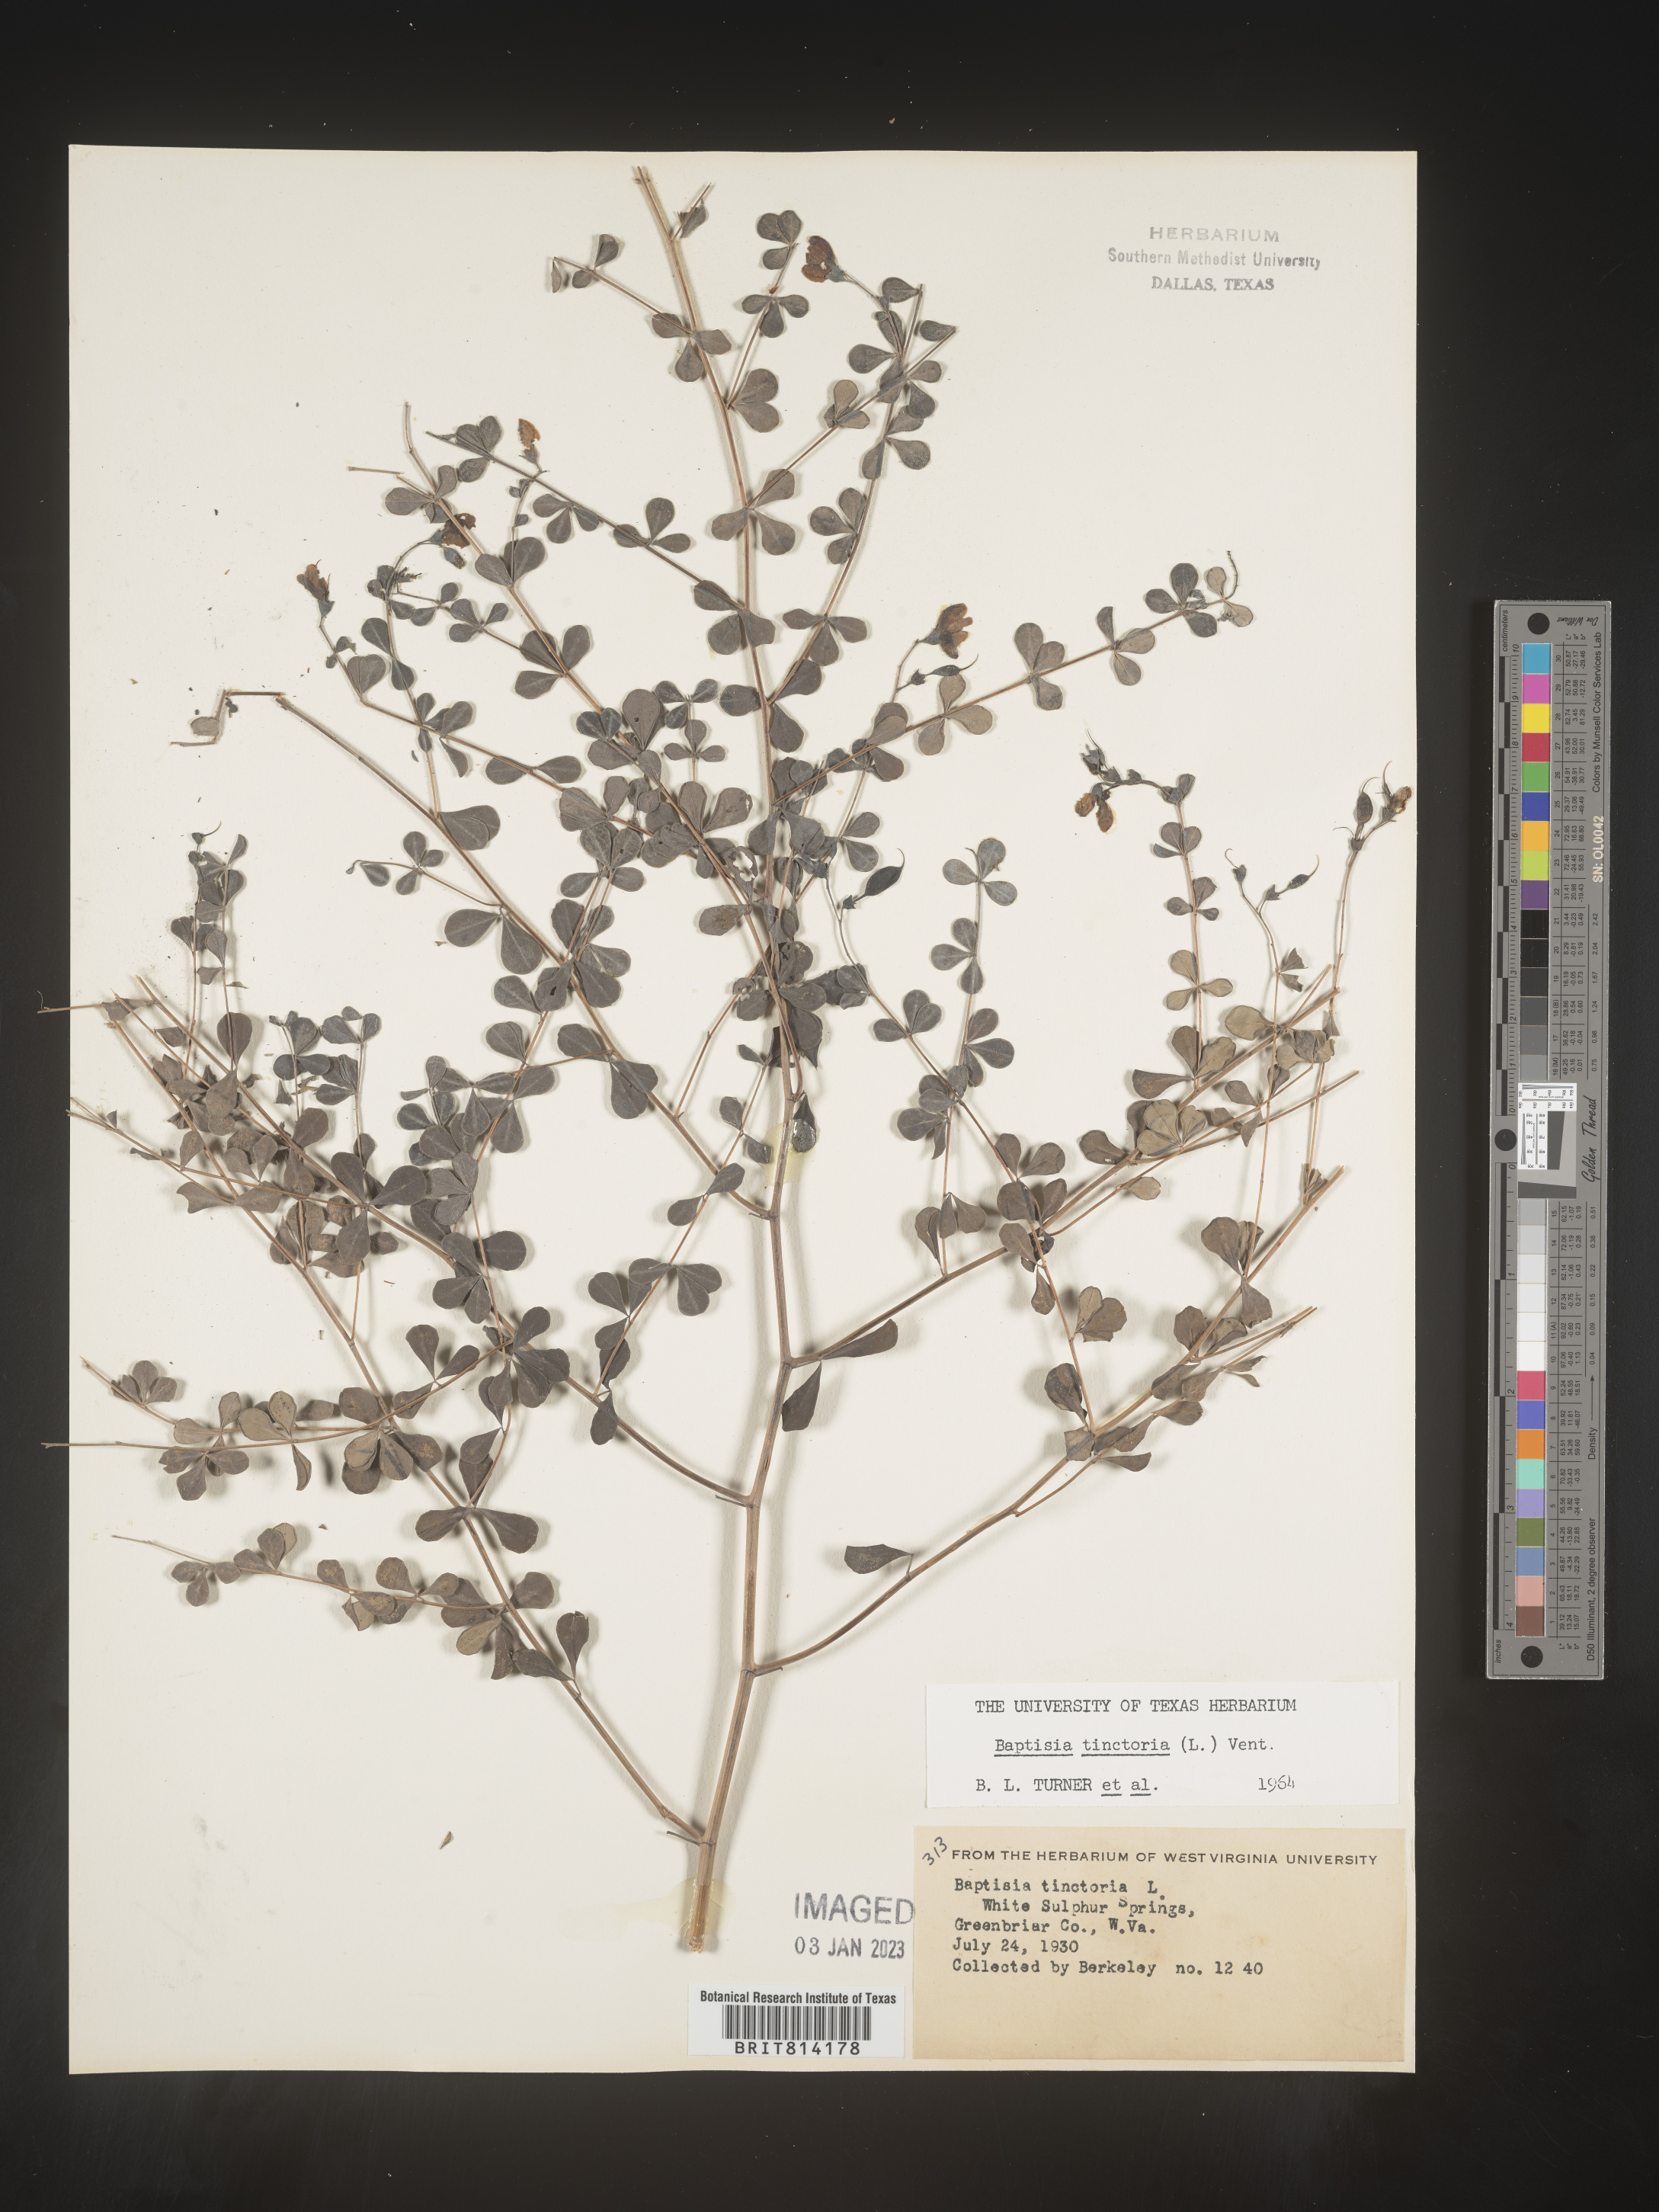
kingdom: Plantae
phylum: Tracheophyta
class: Magnoliopsida
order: Fabales
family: Fabaceae
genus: Baptisia
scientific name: Baptisia tinctoria
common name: Wild indigo
